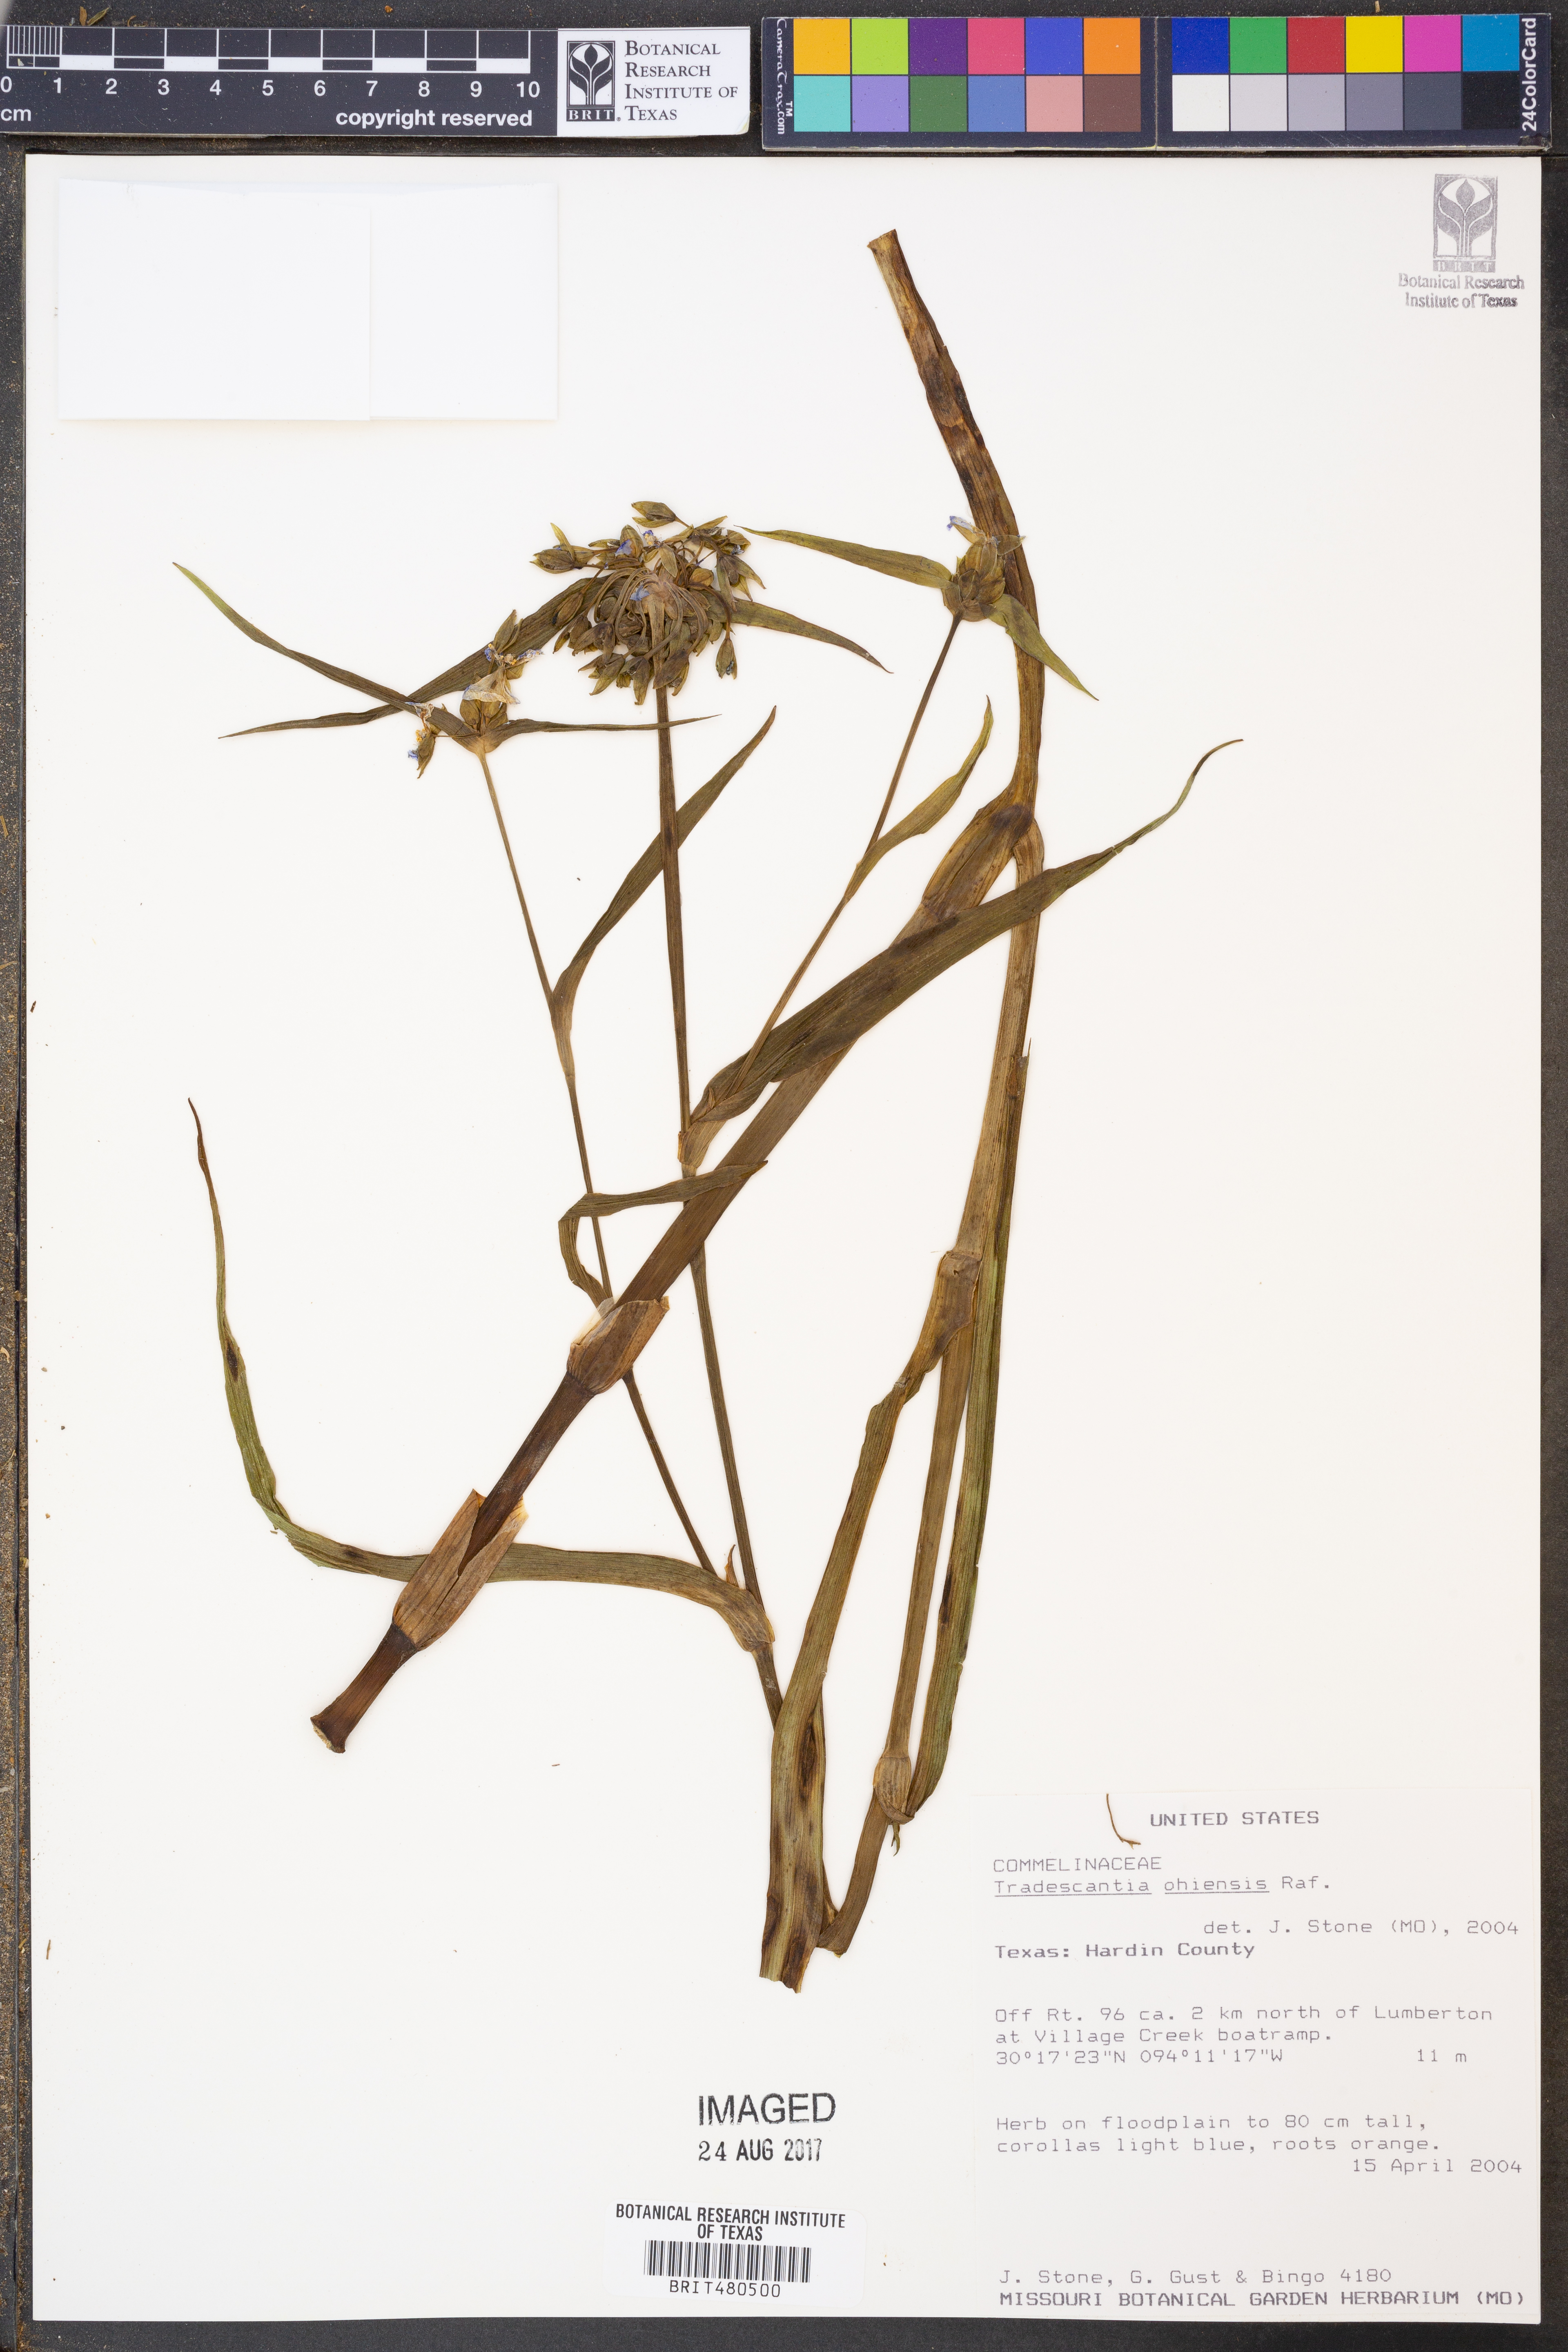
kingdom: Plantae
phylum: Tracheophyta
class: Liliopsida
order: Commelinales
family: Commelinaceae
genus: Tradescantia
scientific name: Tradescantia ohiensis
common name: Ohio spiderwort
